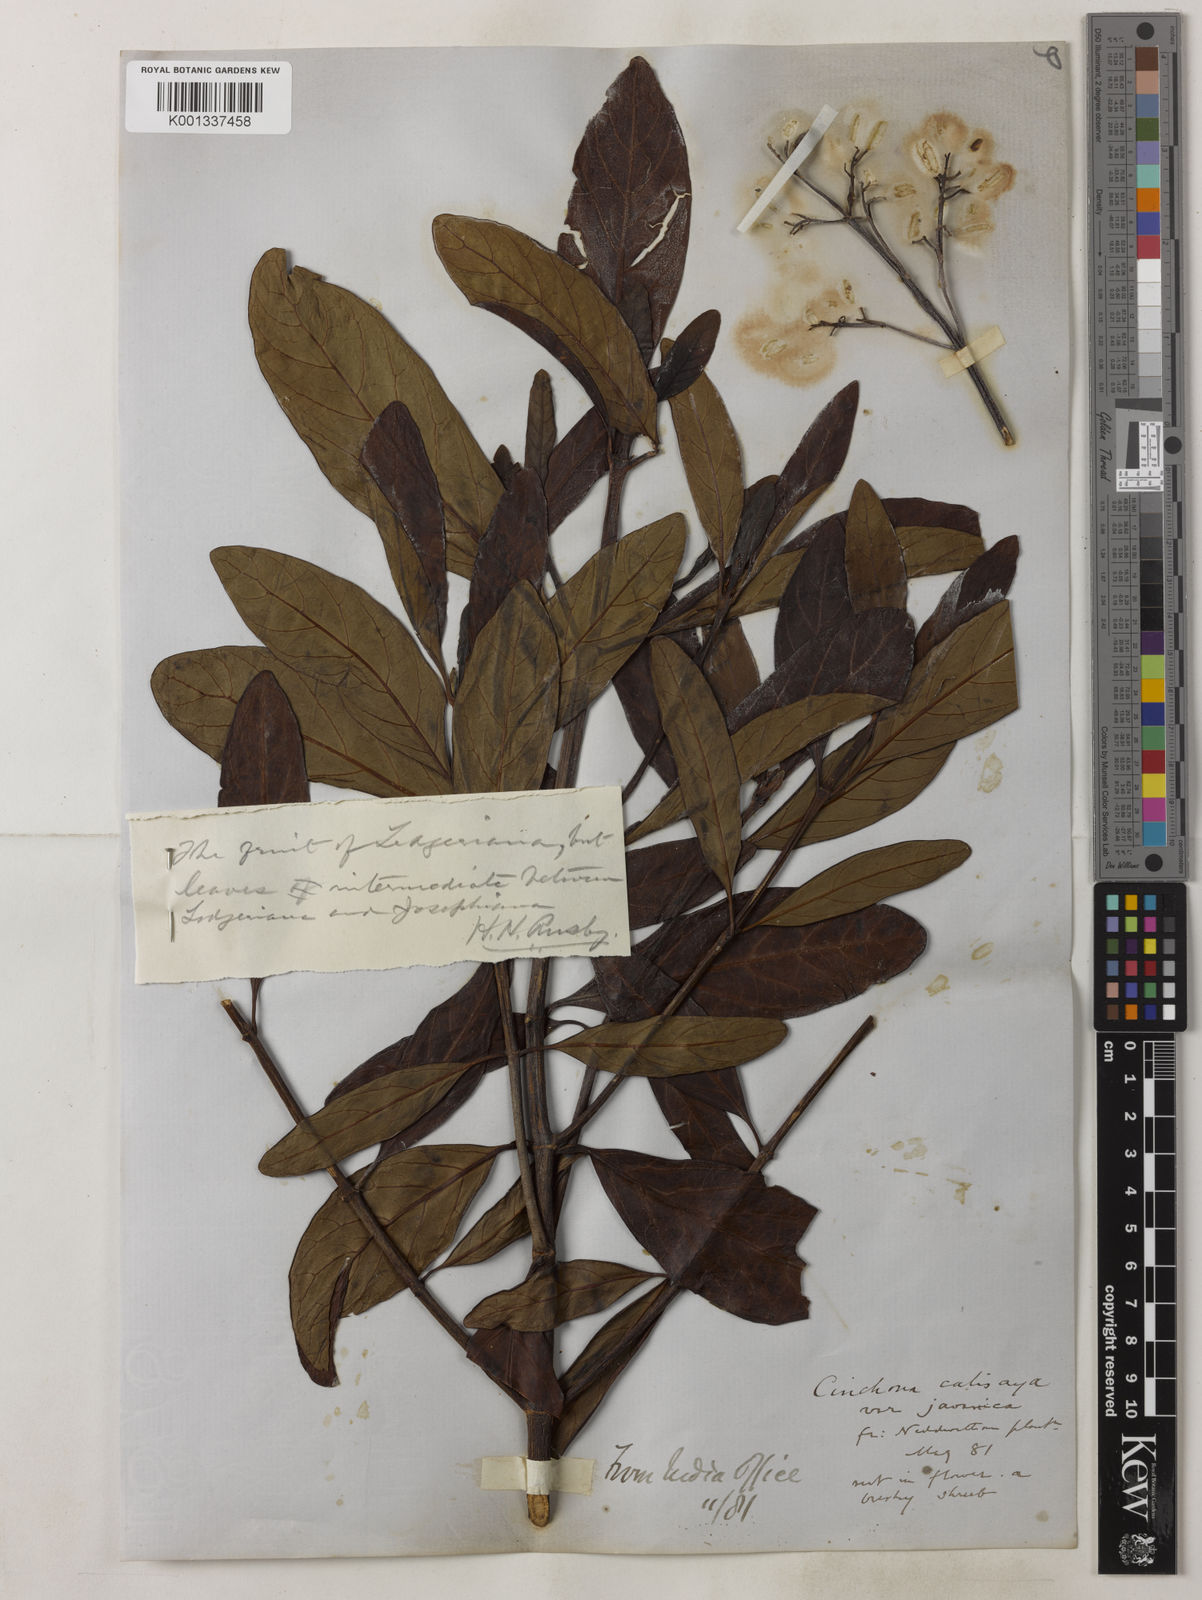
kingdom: Plantae
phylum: Tracheophyta
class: Magnoliopsida
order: Gentianales
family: Rubiaceae
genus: Cinchona
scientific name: Cinchona calisaya
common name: Ledgerbark
